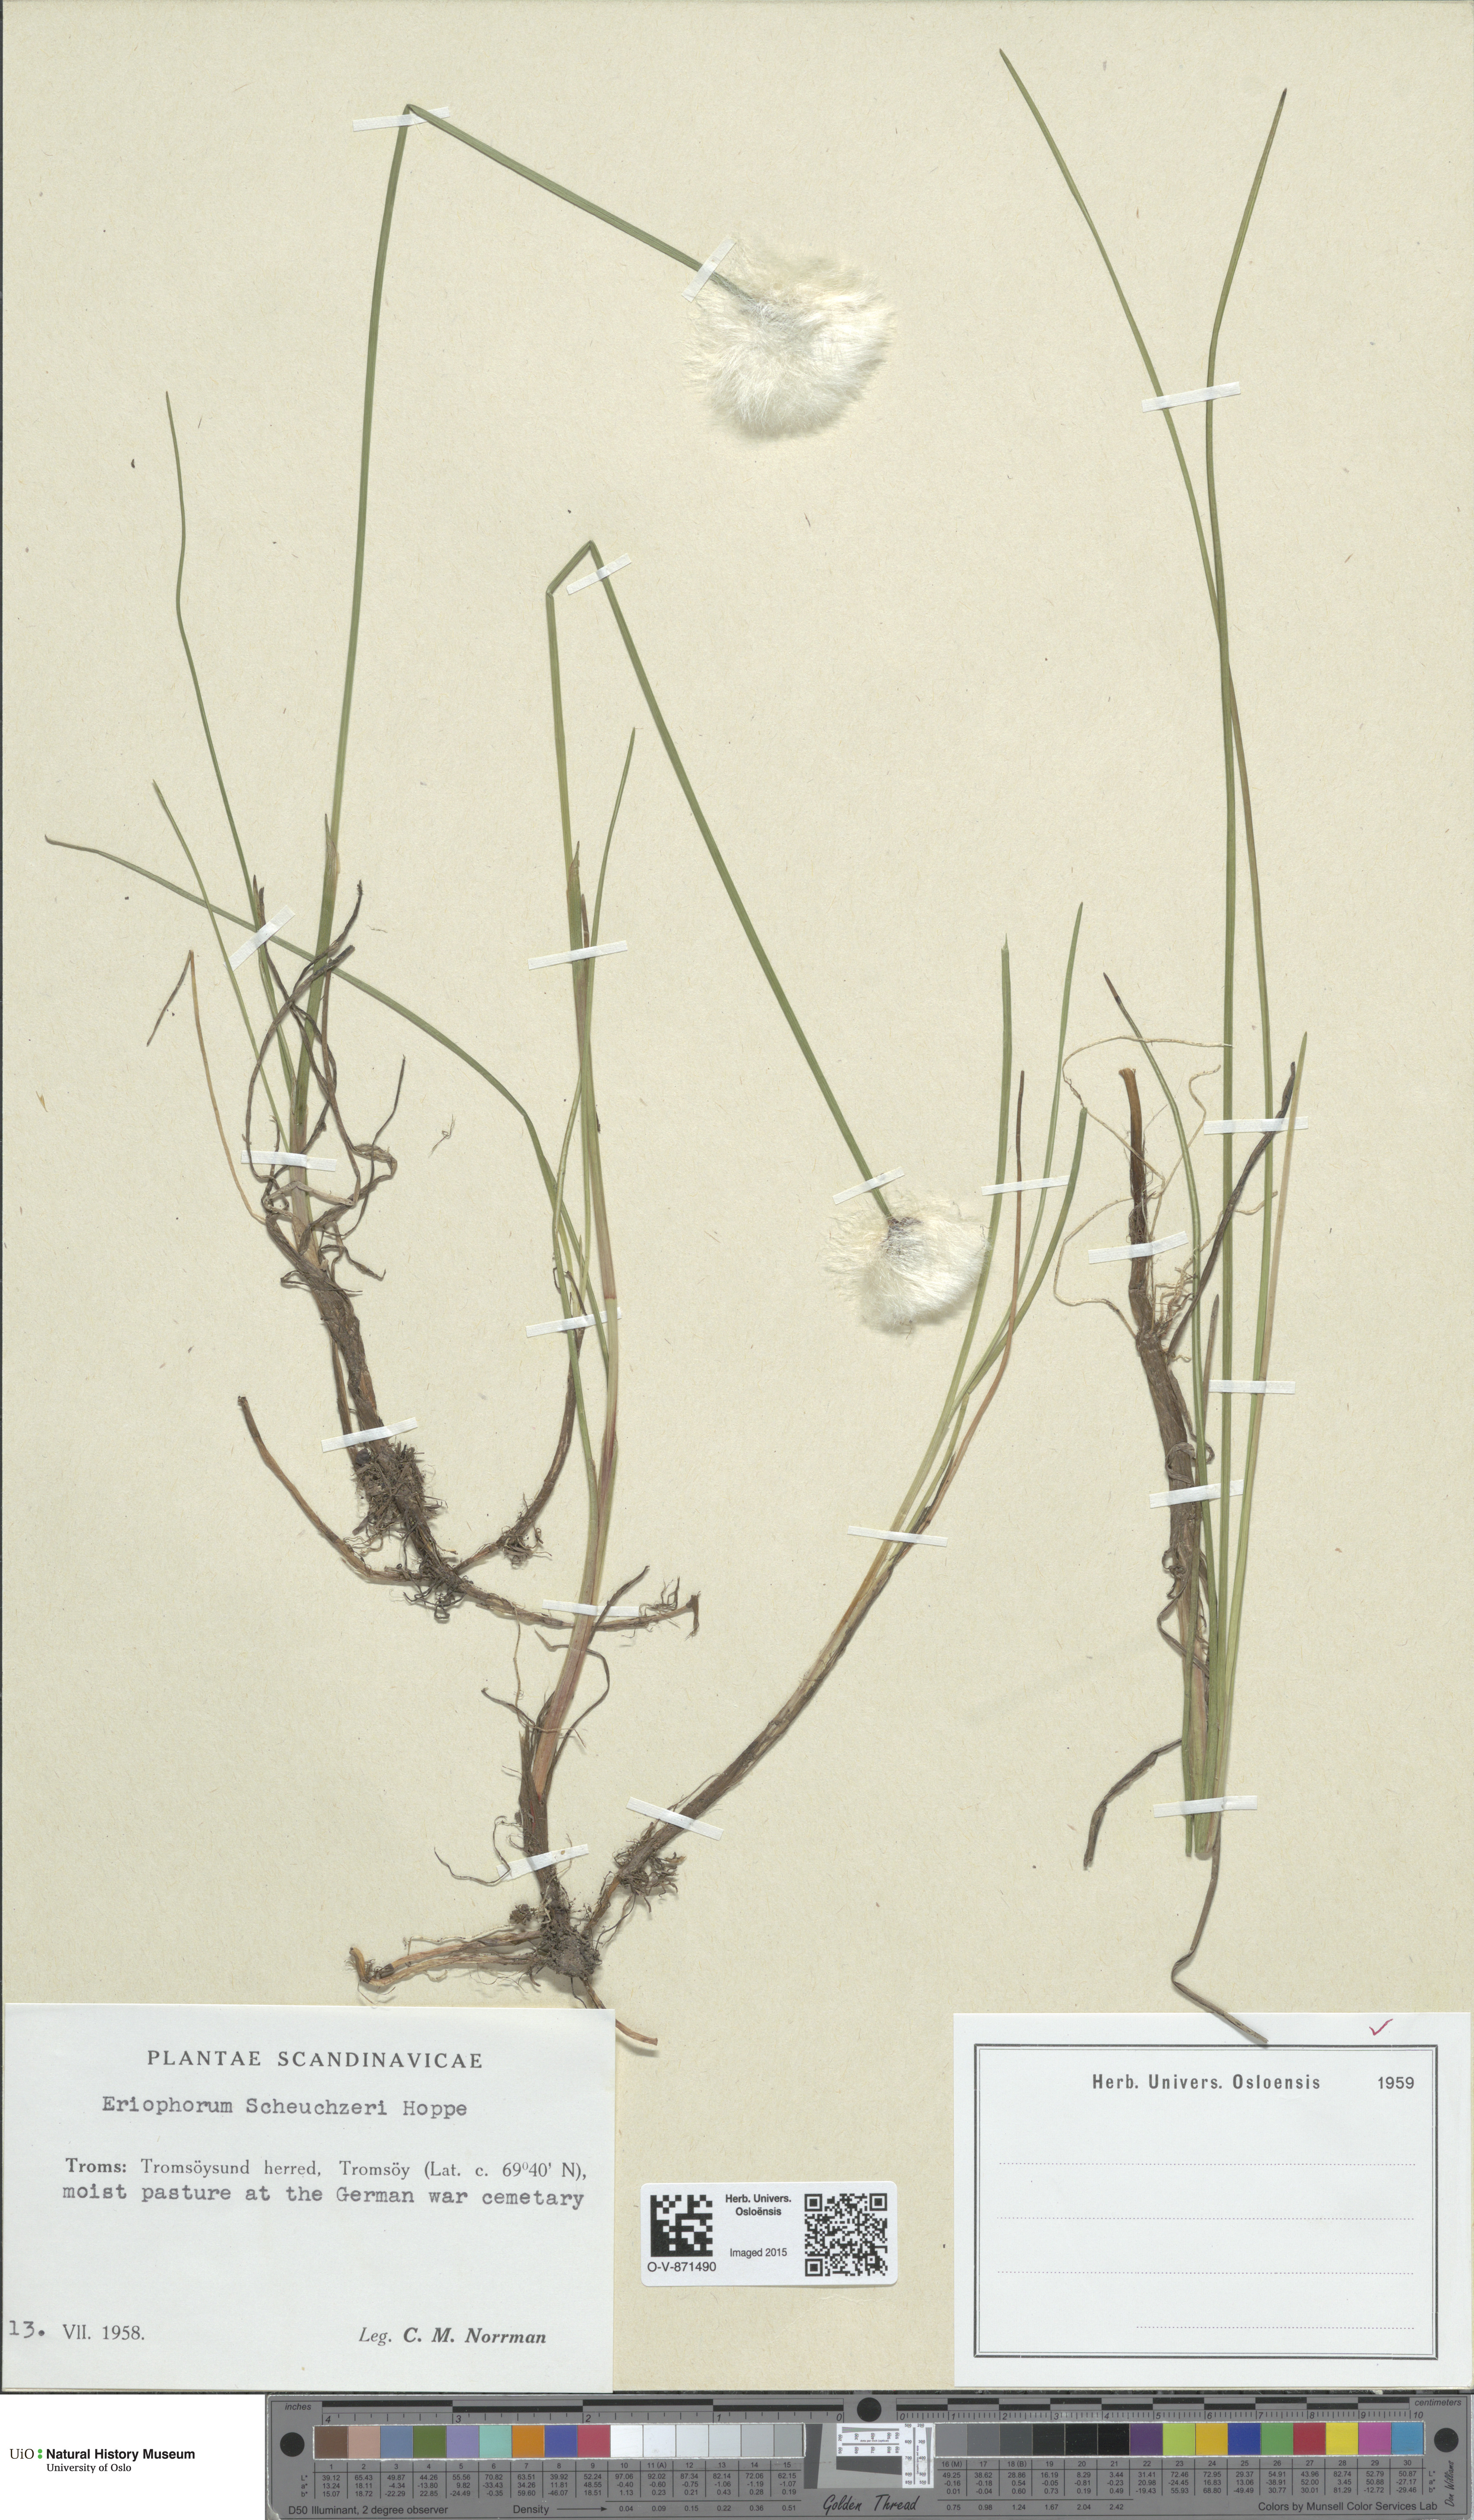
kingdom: Plantae
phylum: Tracheophyta
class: Liliopsida
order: Poales
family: Cyperaceae
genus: Eriophorum
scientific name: Eriophorum scheuchzeri
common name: Scheuchzer's cottongrass
